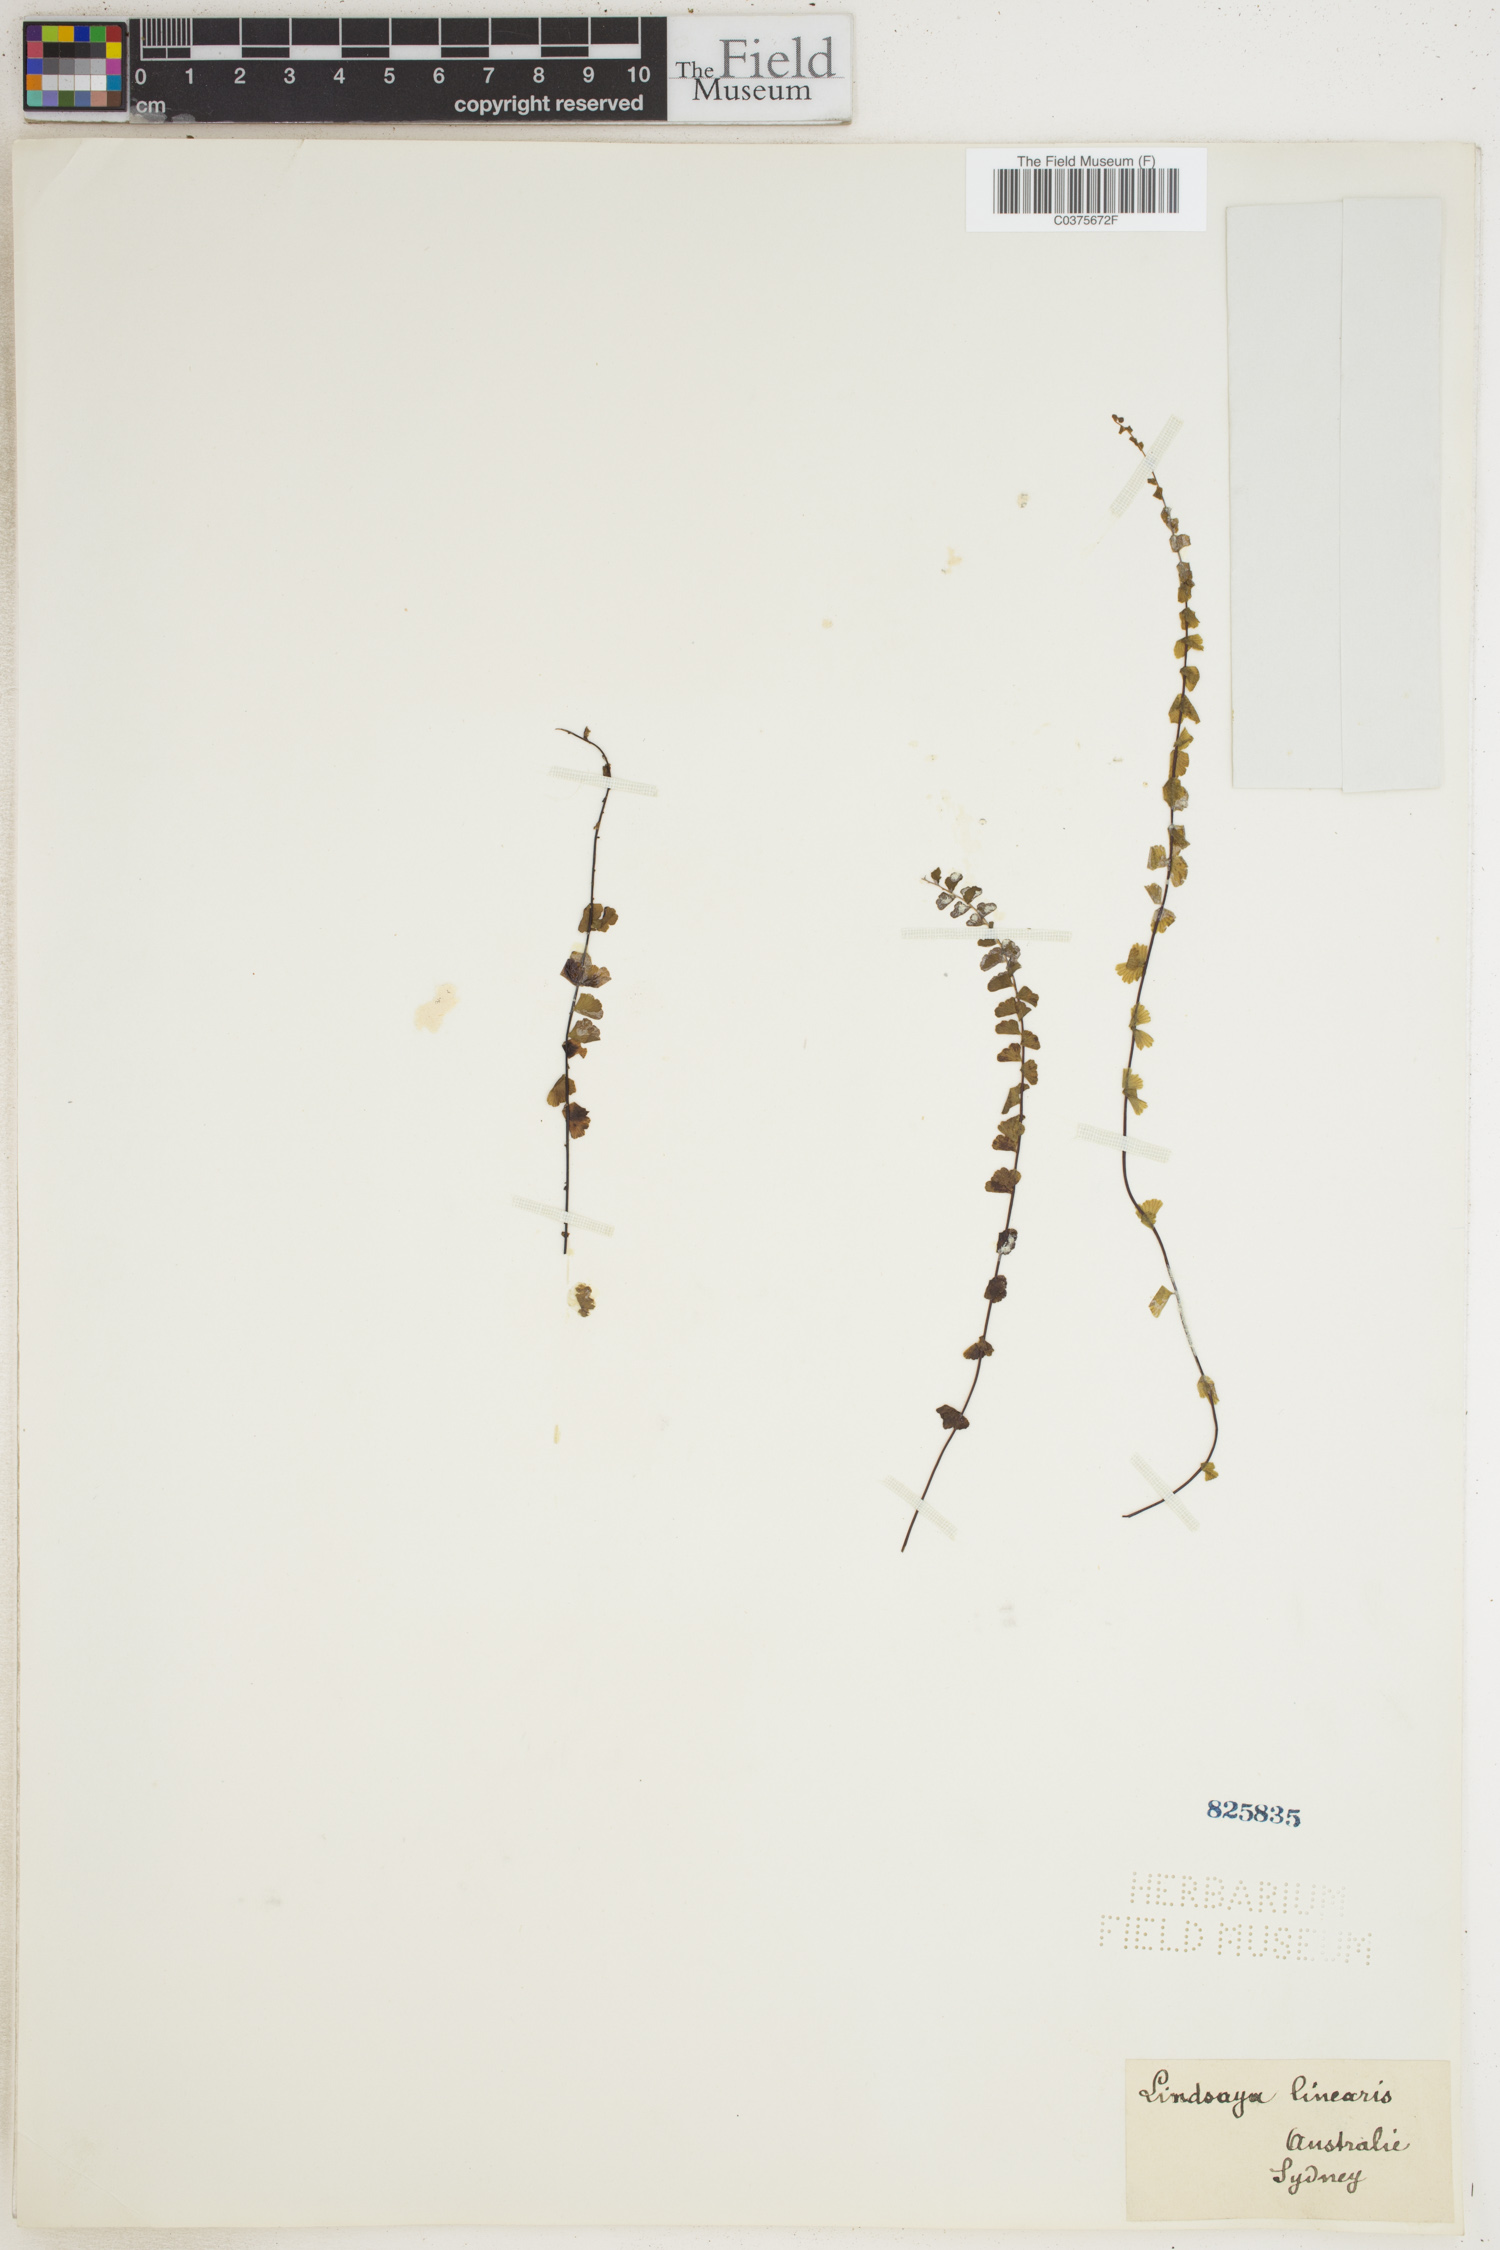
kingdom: Plantae
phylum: Tracheophyta
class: Polypodiopsida
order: Polypodiales
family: Lindsaeaceae
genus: Lindsaea
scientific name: Lindsaea linearis
